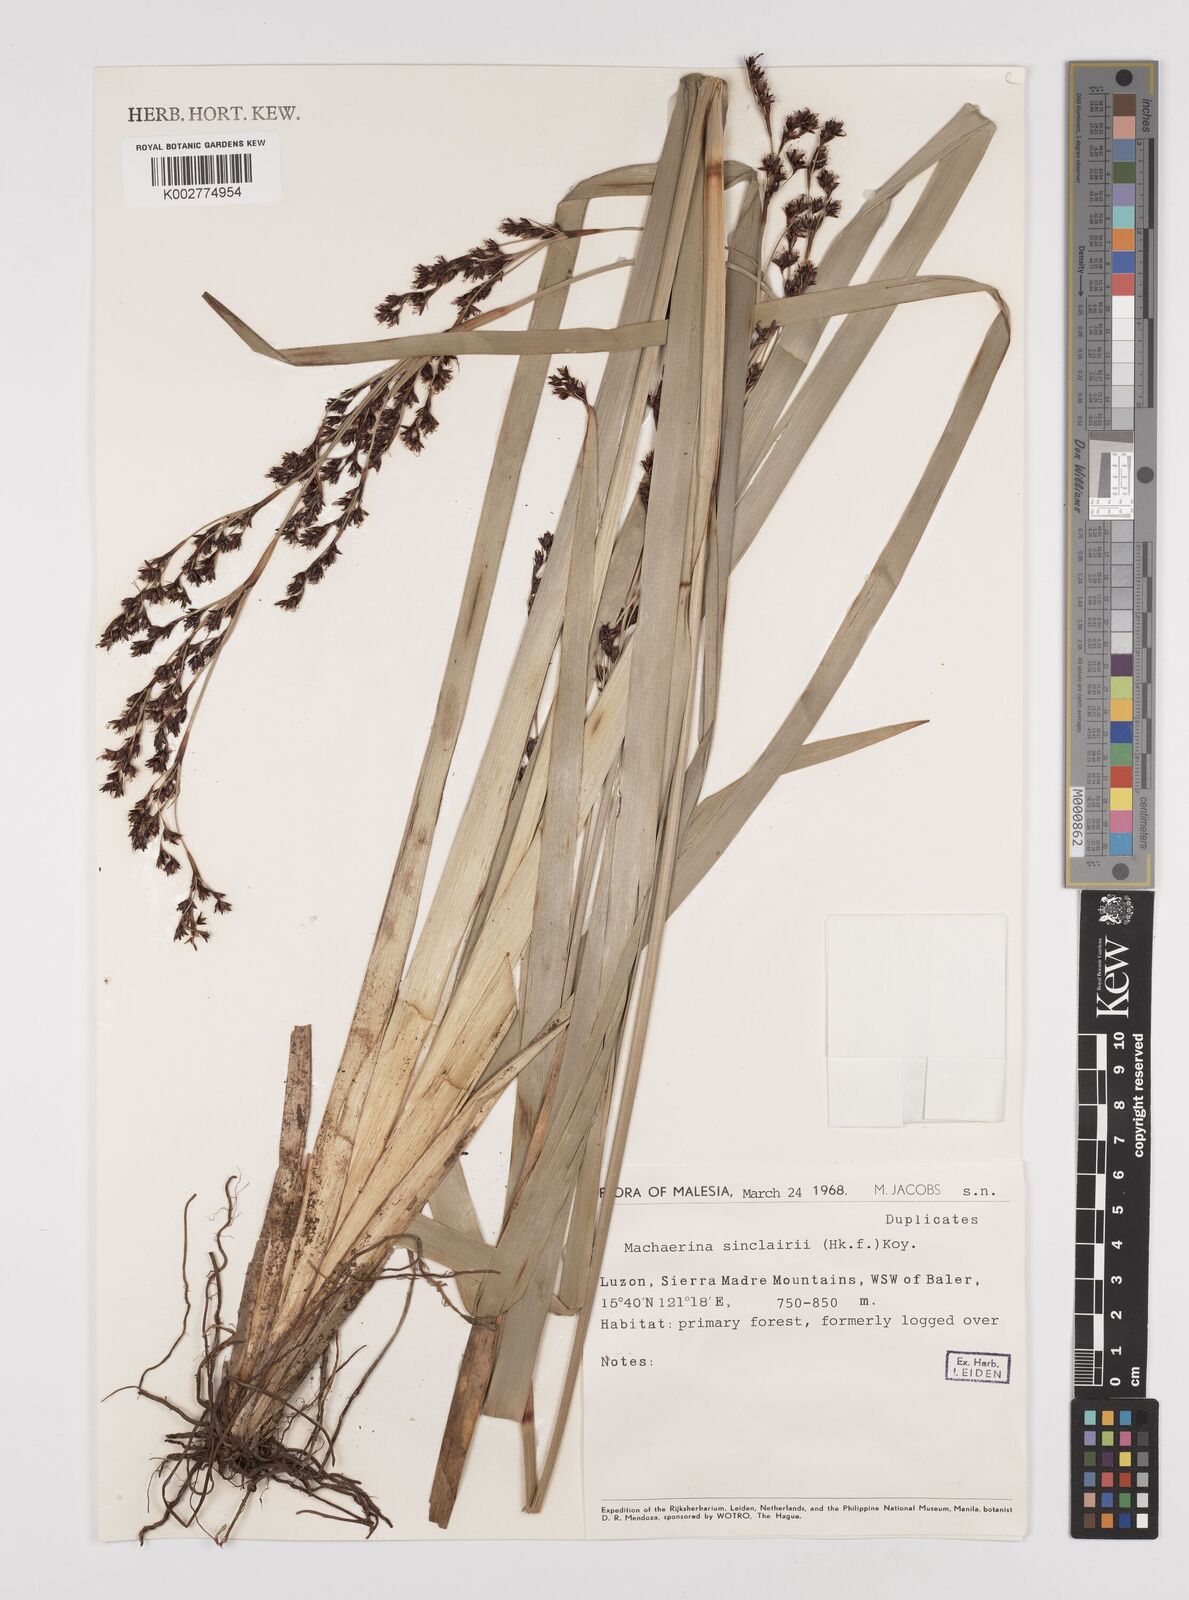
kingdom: Plantae
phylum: Tracheophyta
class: Liliopsida
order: Poales
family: Cyperaceae
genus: Machaerina
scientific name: Machaerina sinclairii
